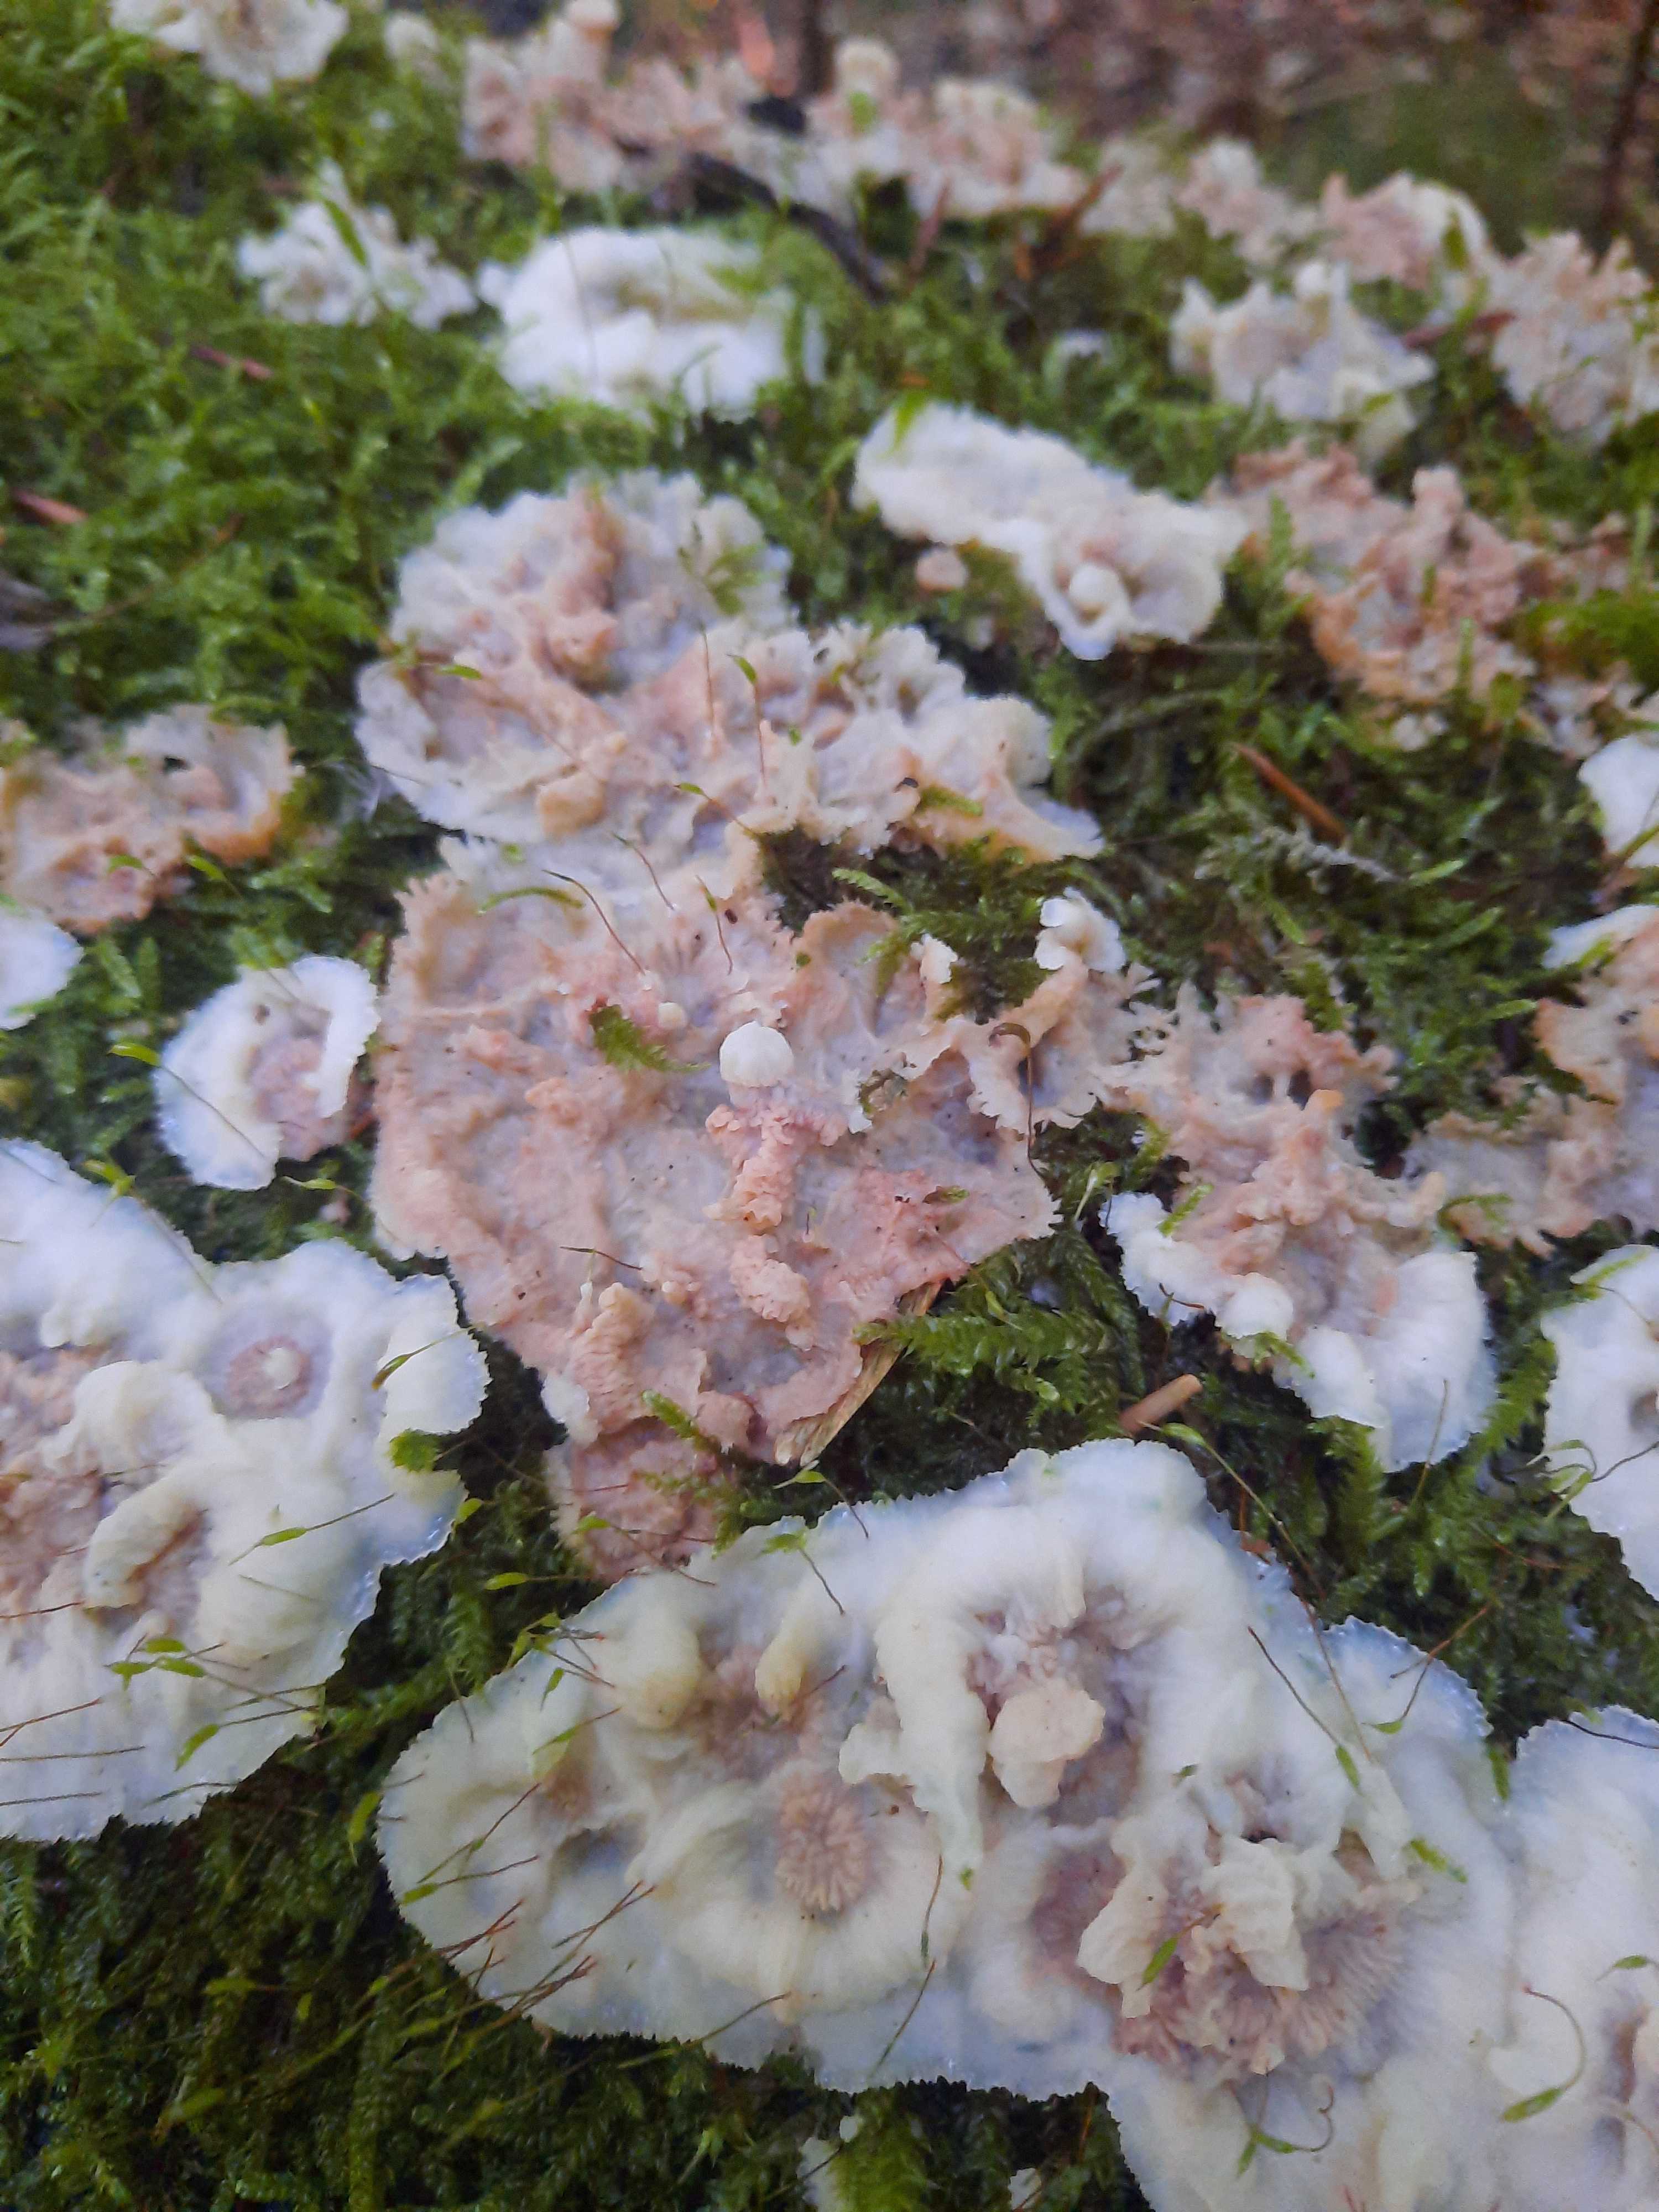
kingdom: Fungi
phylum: Basidiomycota
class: Agaricomycetes
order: Polyporales
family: Meruliaceae
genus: Phlebia
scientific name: Phlebia tremellosa
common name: bævrende åresvamp
